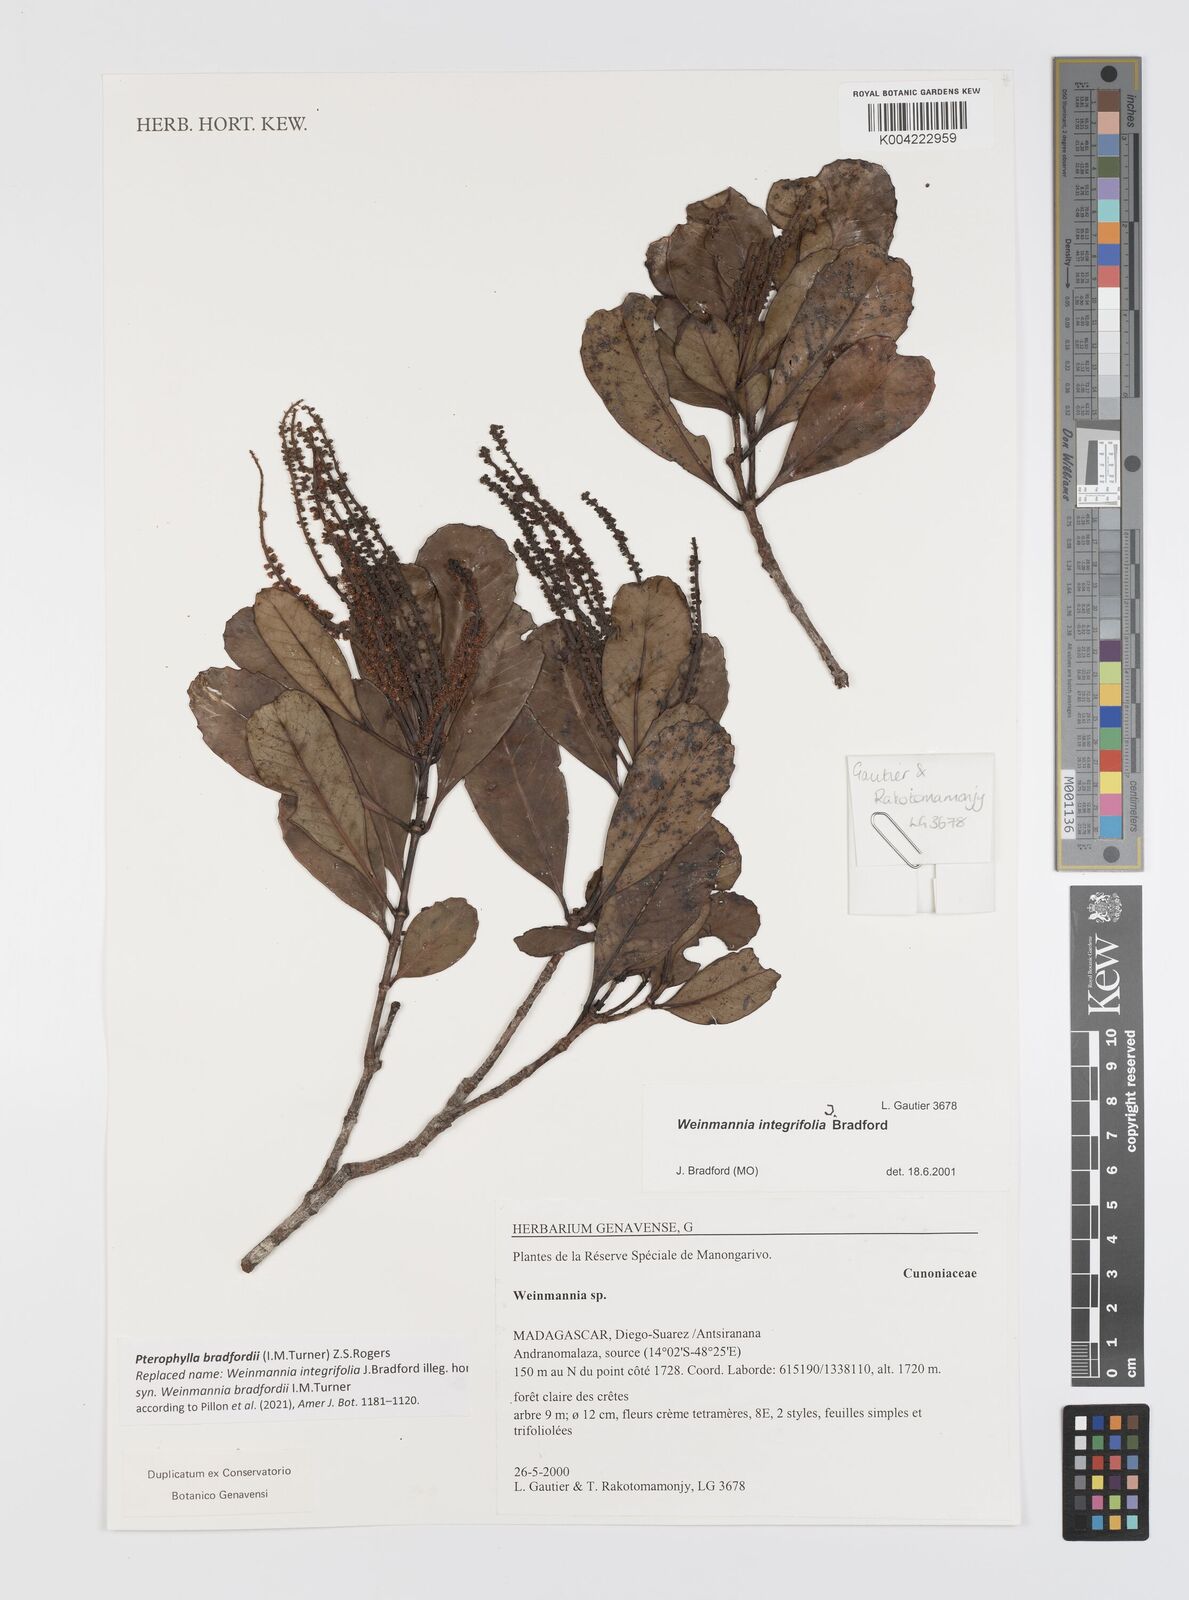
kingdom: Plantae
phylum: Tracheophyta
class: Magnoliopsida
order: Oxalidales
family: Cunoniaceae
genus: Pterophylla
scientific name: Pterophylla bradfordii
